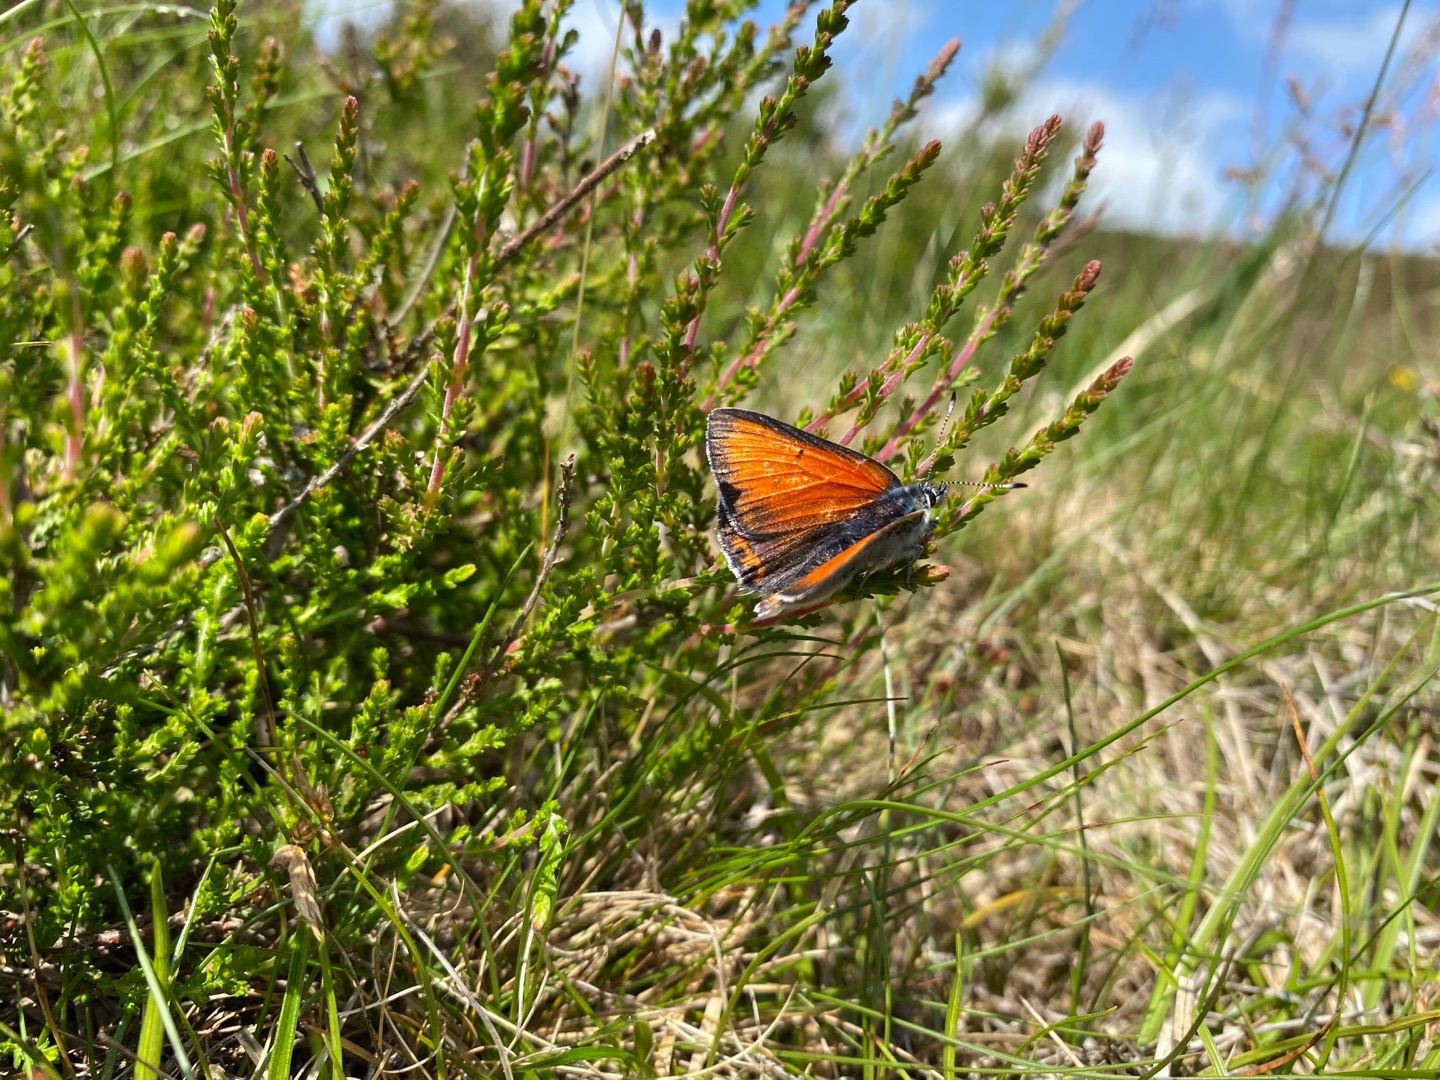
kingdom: Animalia
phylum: Arthropoda
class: Insecta
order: Lepidoptera
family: Lycaenidae
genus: Palaeochrysophanus
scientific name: Palaeochrysophanus hippothoe
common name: Violetrandet ildfugl
